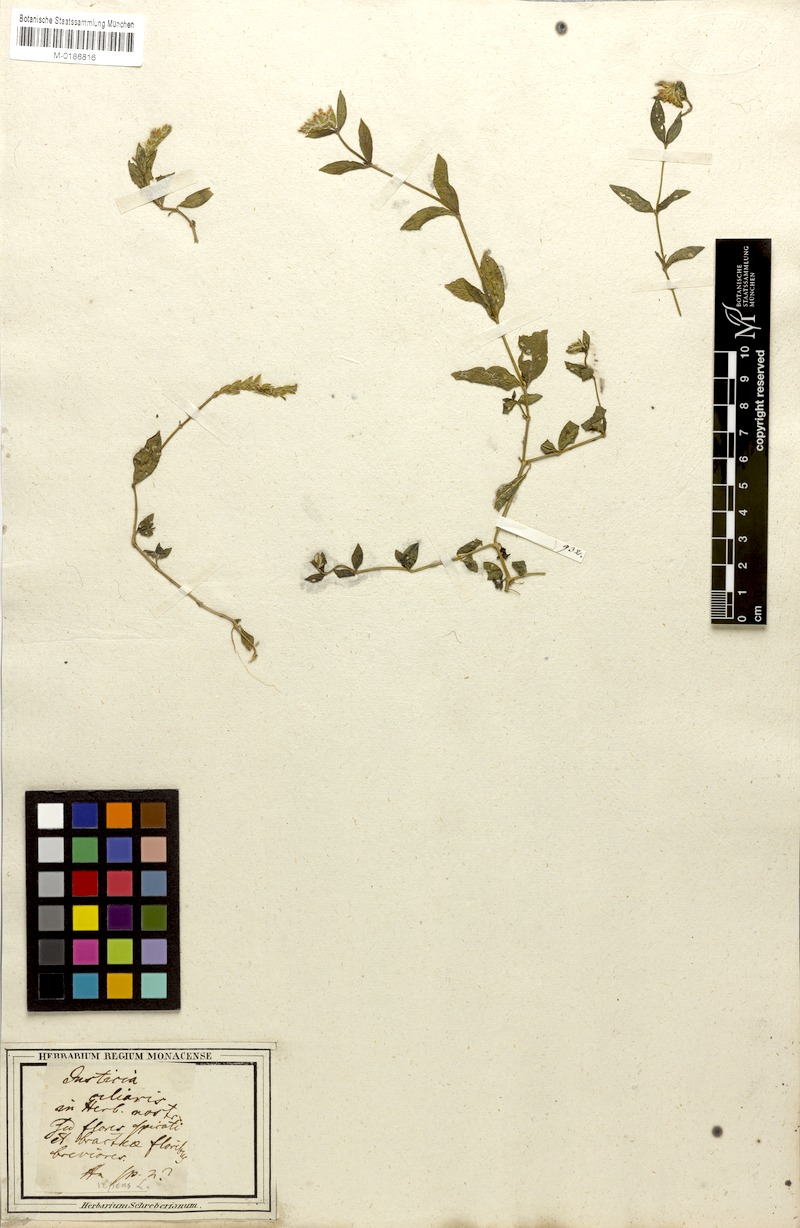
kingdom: Plantae
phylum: Tracheophyta
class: Magnoliopsida
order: Lamiales
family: Acanthaceae
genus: Rungia
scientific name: Rungia repens
